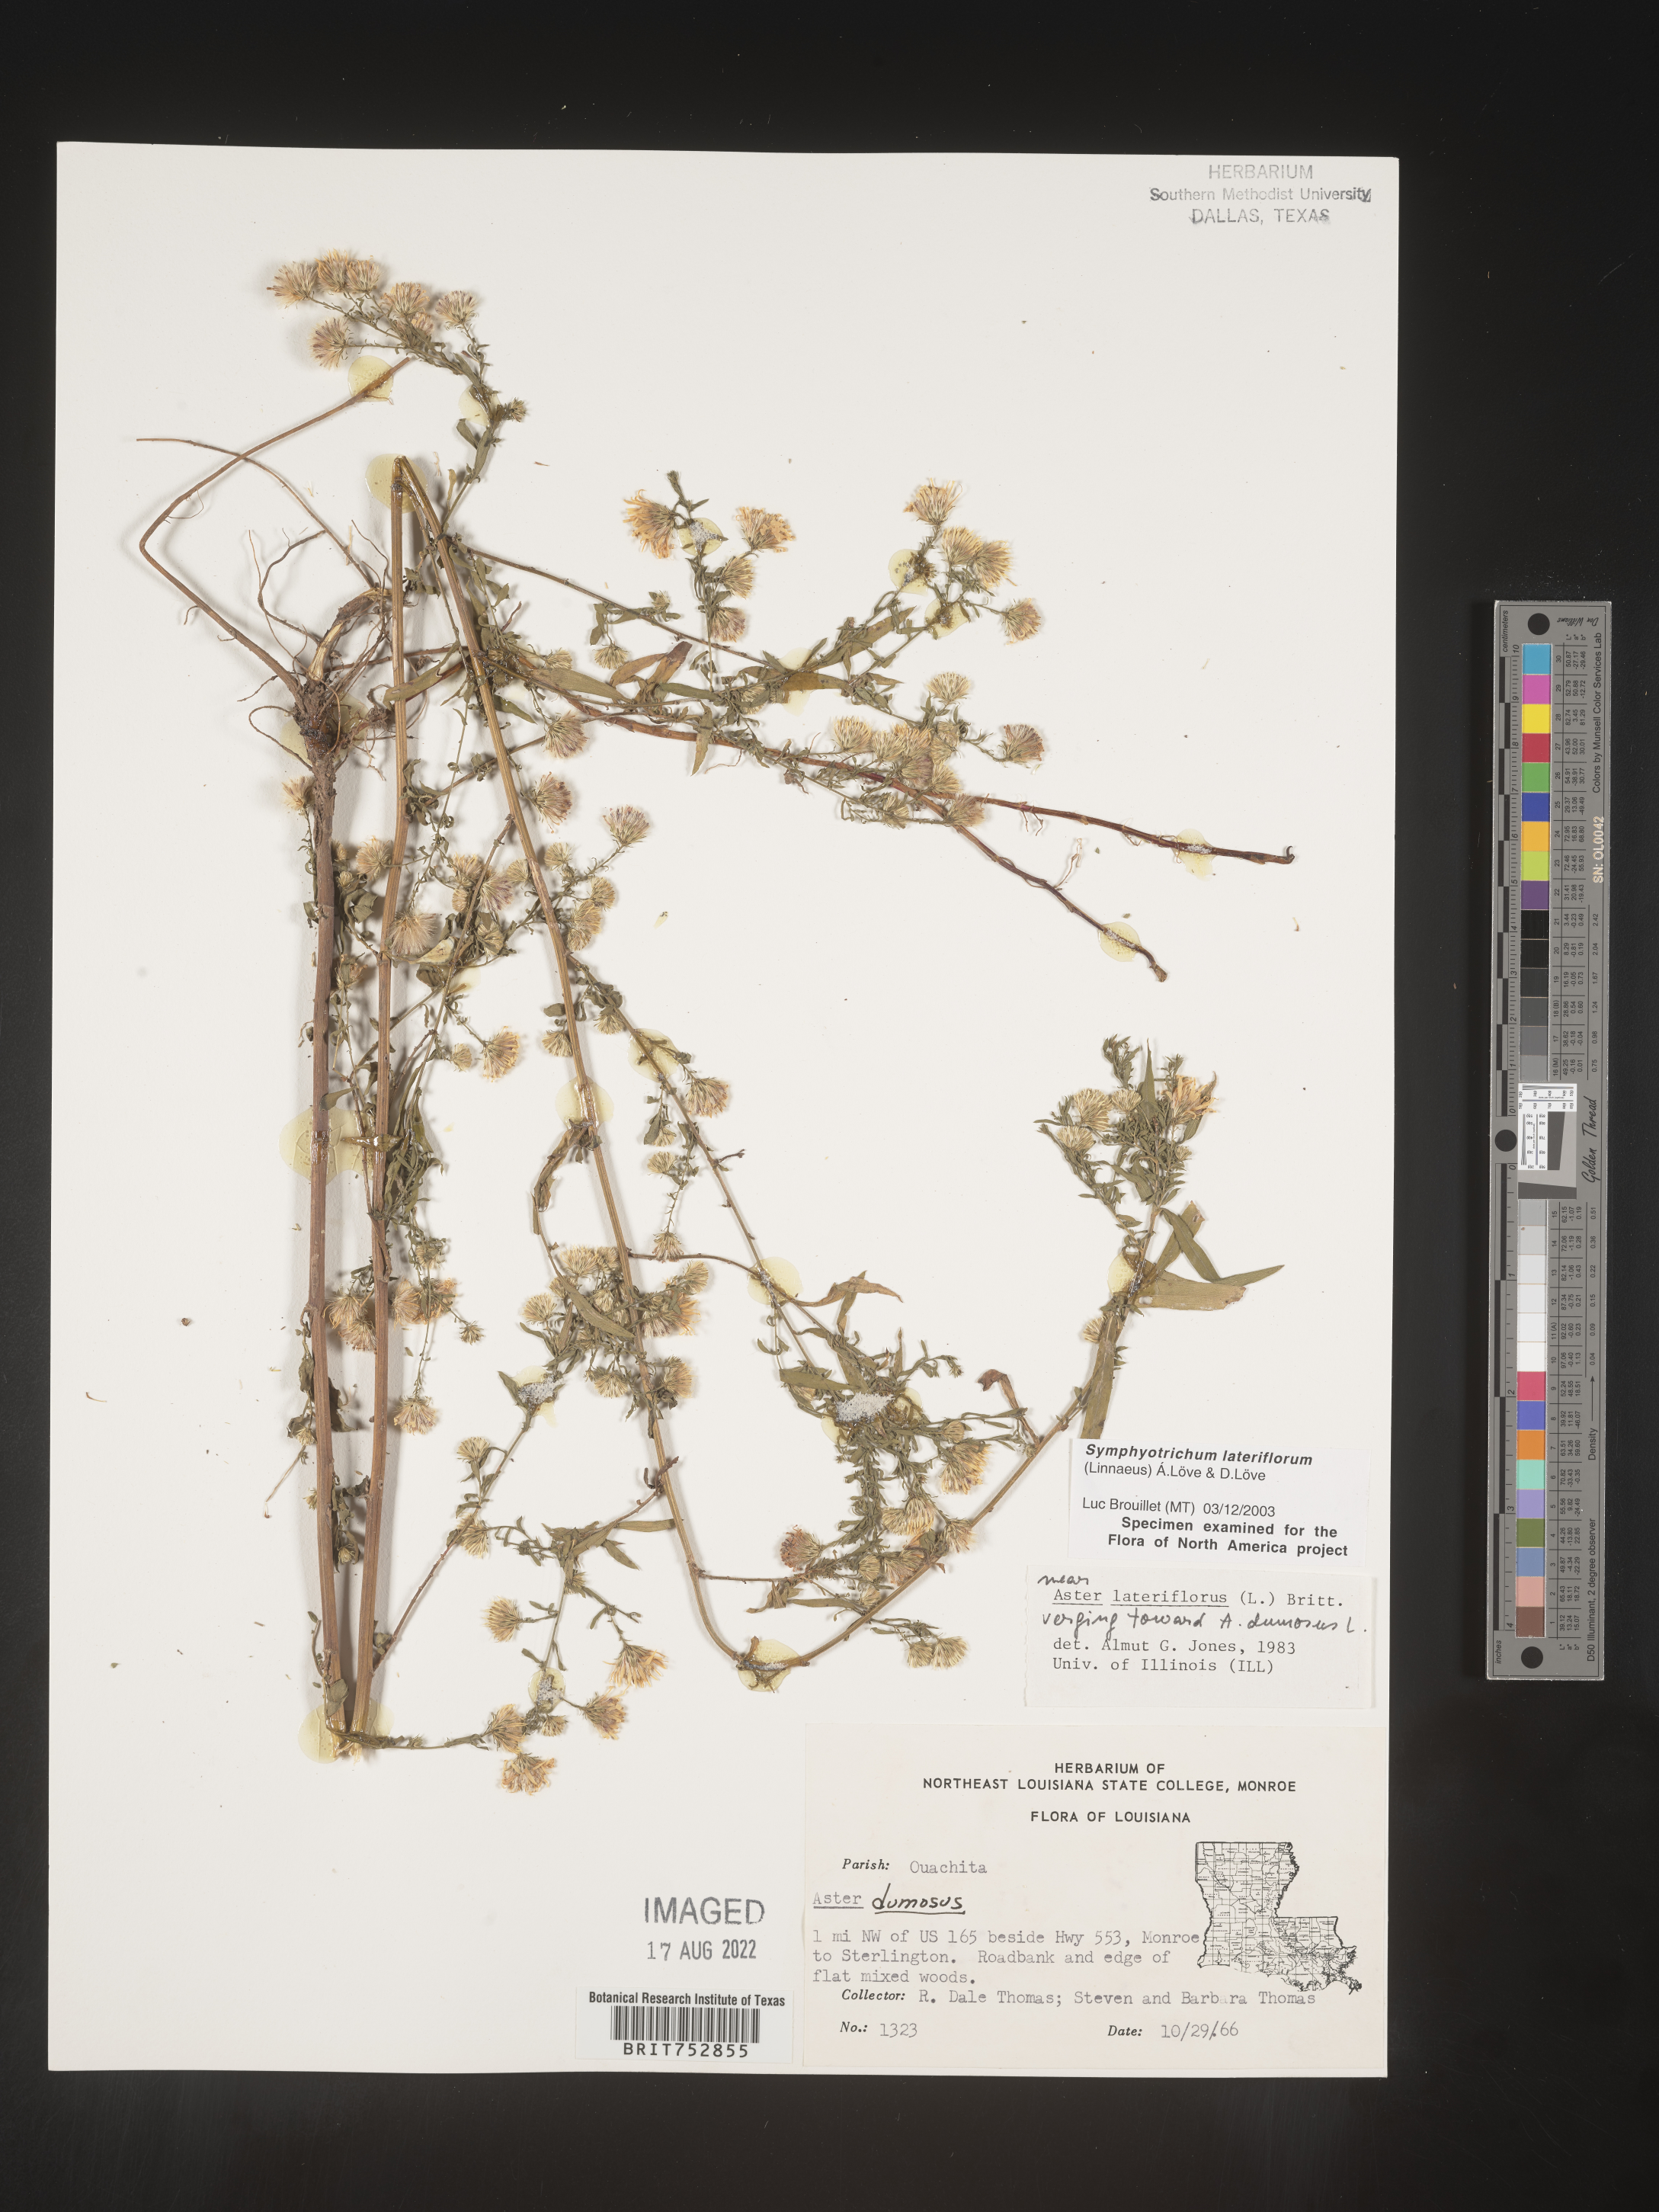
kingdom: Plantae
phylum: Tracheophyta
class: Magnoliopsida
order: Asterales
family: Asteraceae
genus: Symphyotrichum
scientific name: Symphyotrichum lateriflorum
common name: Calico aster
